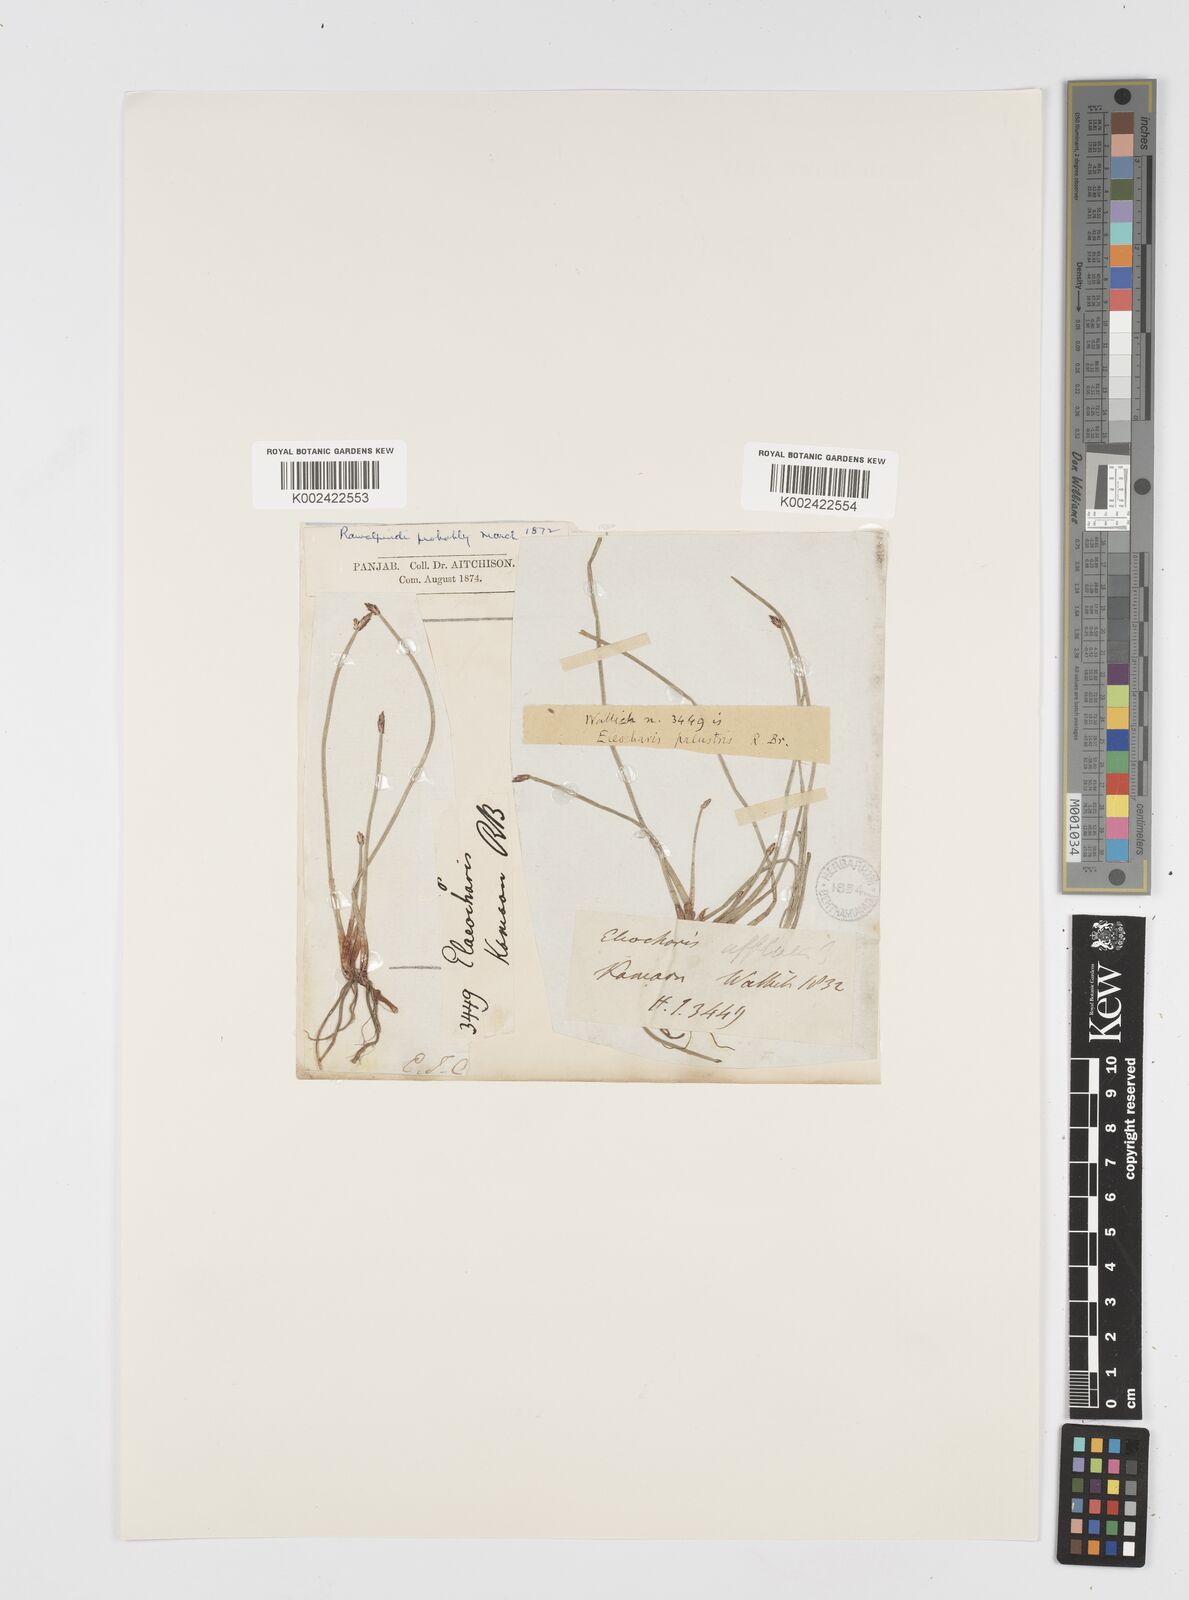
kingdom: Plantae
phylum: Tracheophyta
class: Liliopsida
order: Poales
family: Cyperaceae
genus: Eleocharis
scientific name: Eleocharis palustris
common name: Common spike-rush
